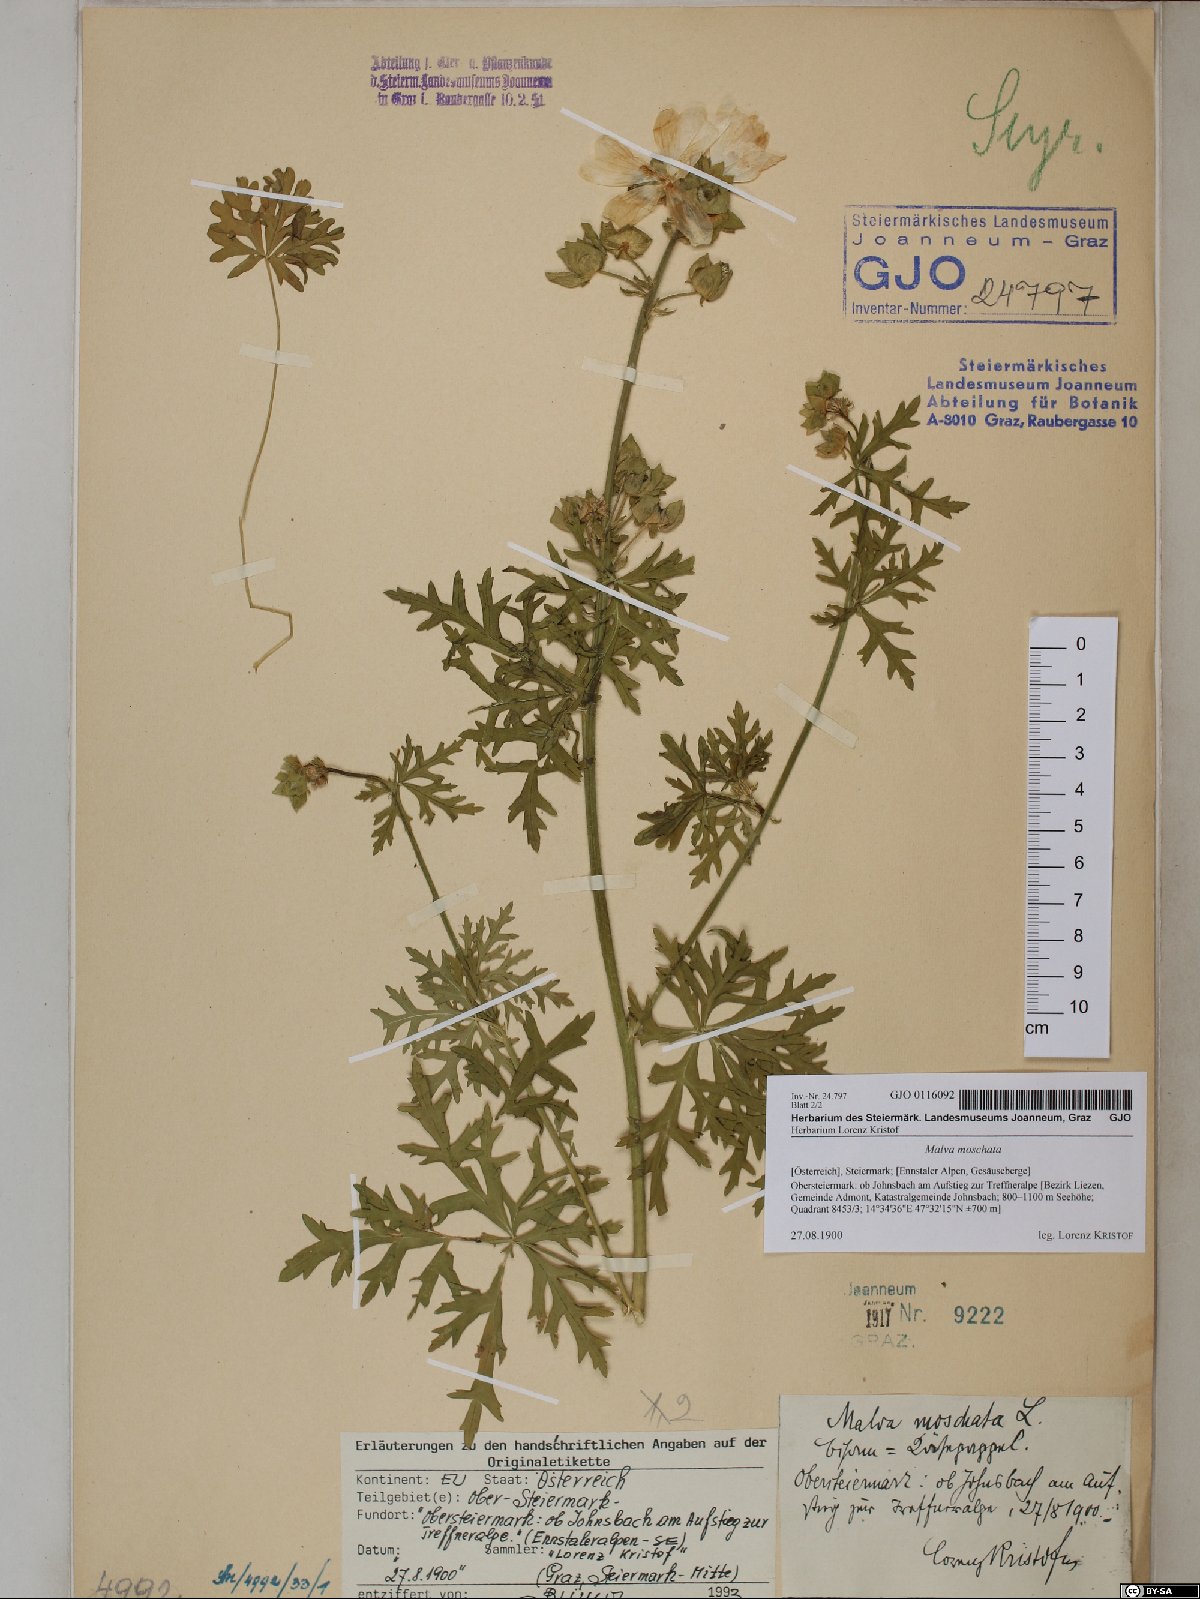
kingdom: Plantae
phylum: Tracheophyta
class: Magnoliopsida
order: Malvales
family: Malvaceae
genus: Malva
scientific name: Malva moschata
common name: Musk mallow
